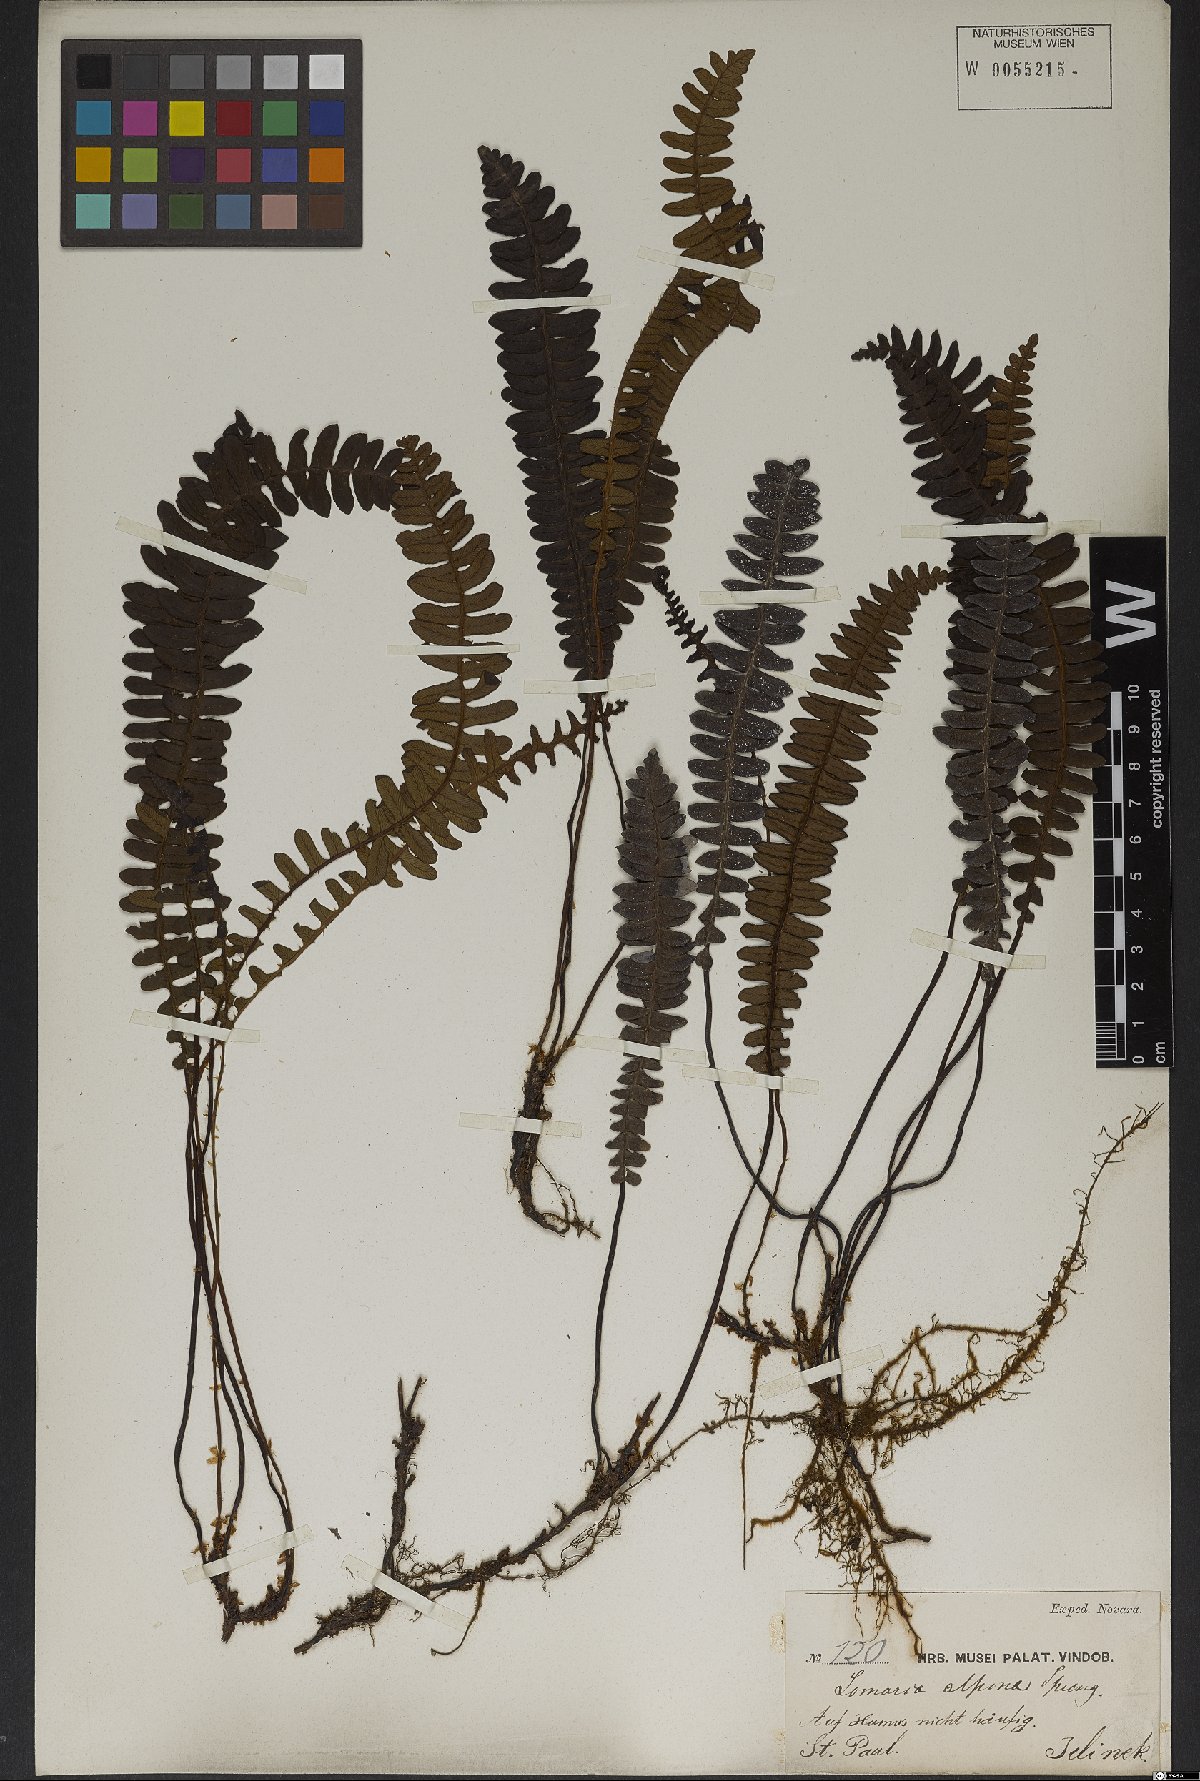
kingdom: Plantae
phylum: Tracheophyta
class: Polypodiopsida
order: Polypodiales
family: Blechnaceae
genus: Austroblechnum
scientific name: Austroblechnum penna-marina
